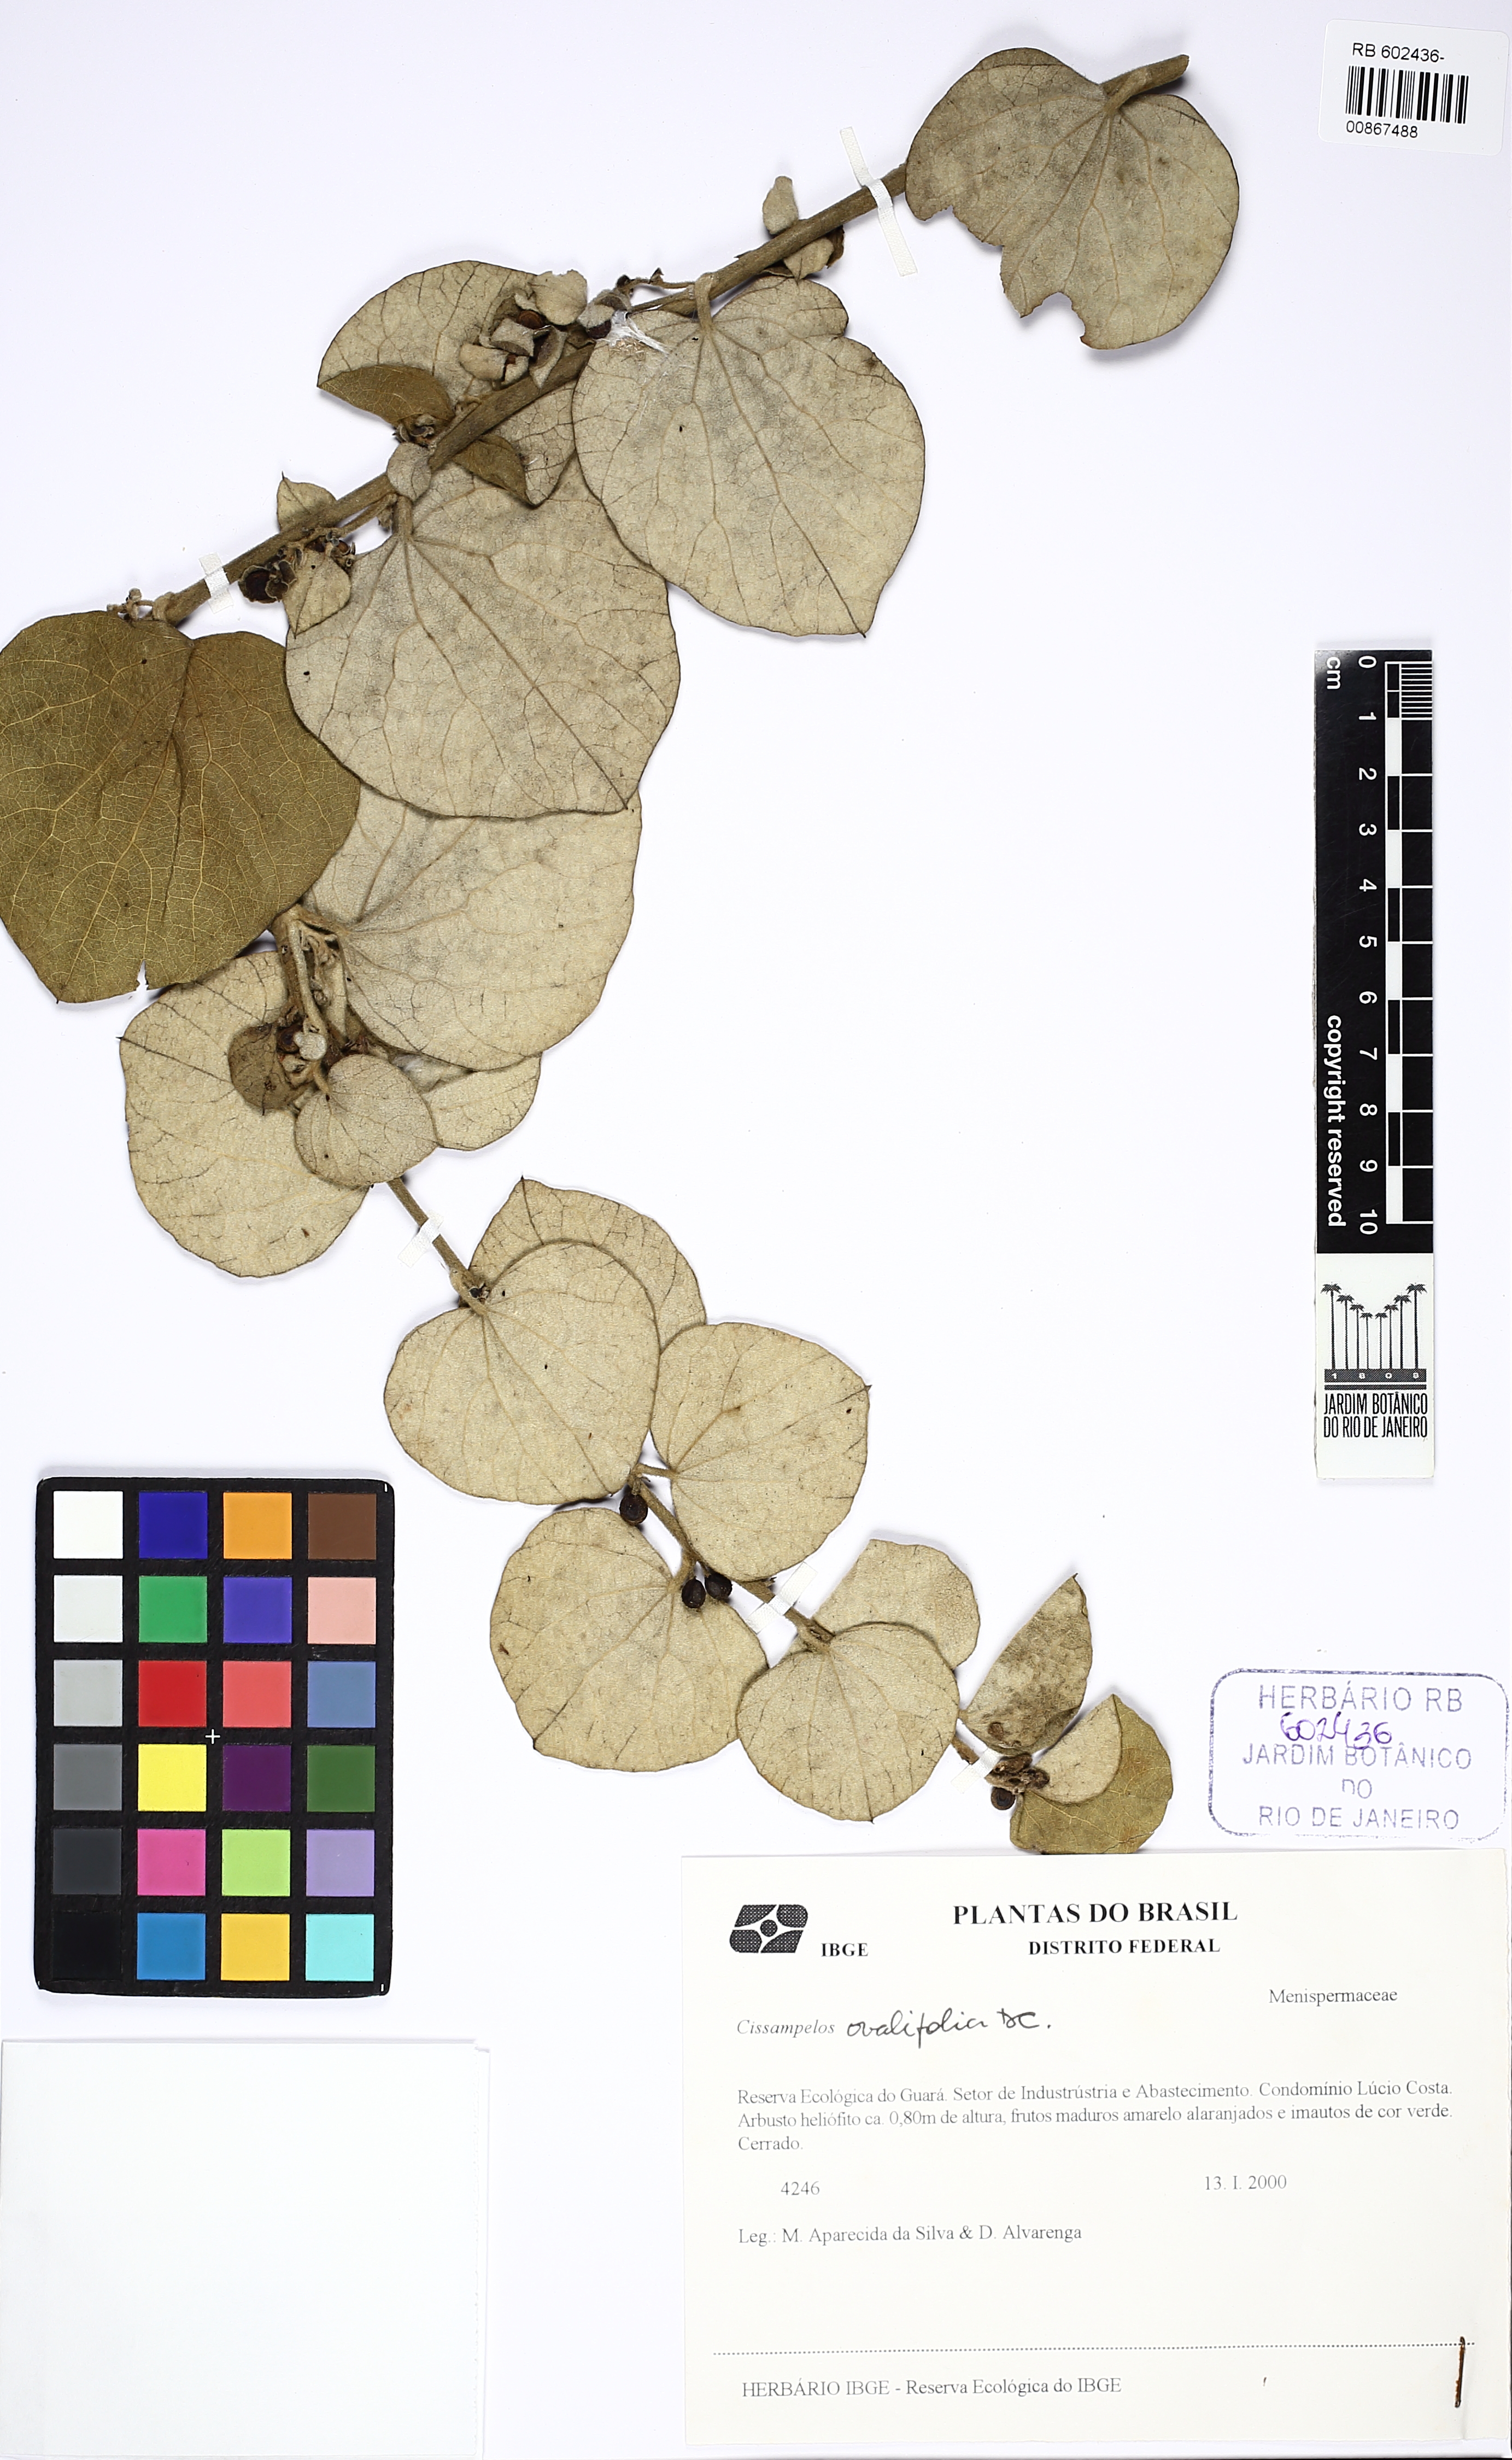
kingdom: Plantae
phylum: Tracheophyta
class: Magnoliopsida
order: Ranunculales
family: Menispermaceae
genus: Cissampelos
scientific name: Cissampelos ovalifolia
